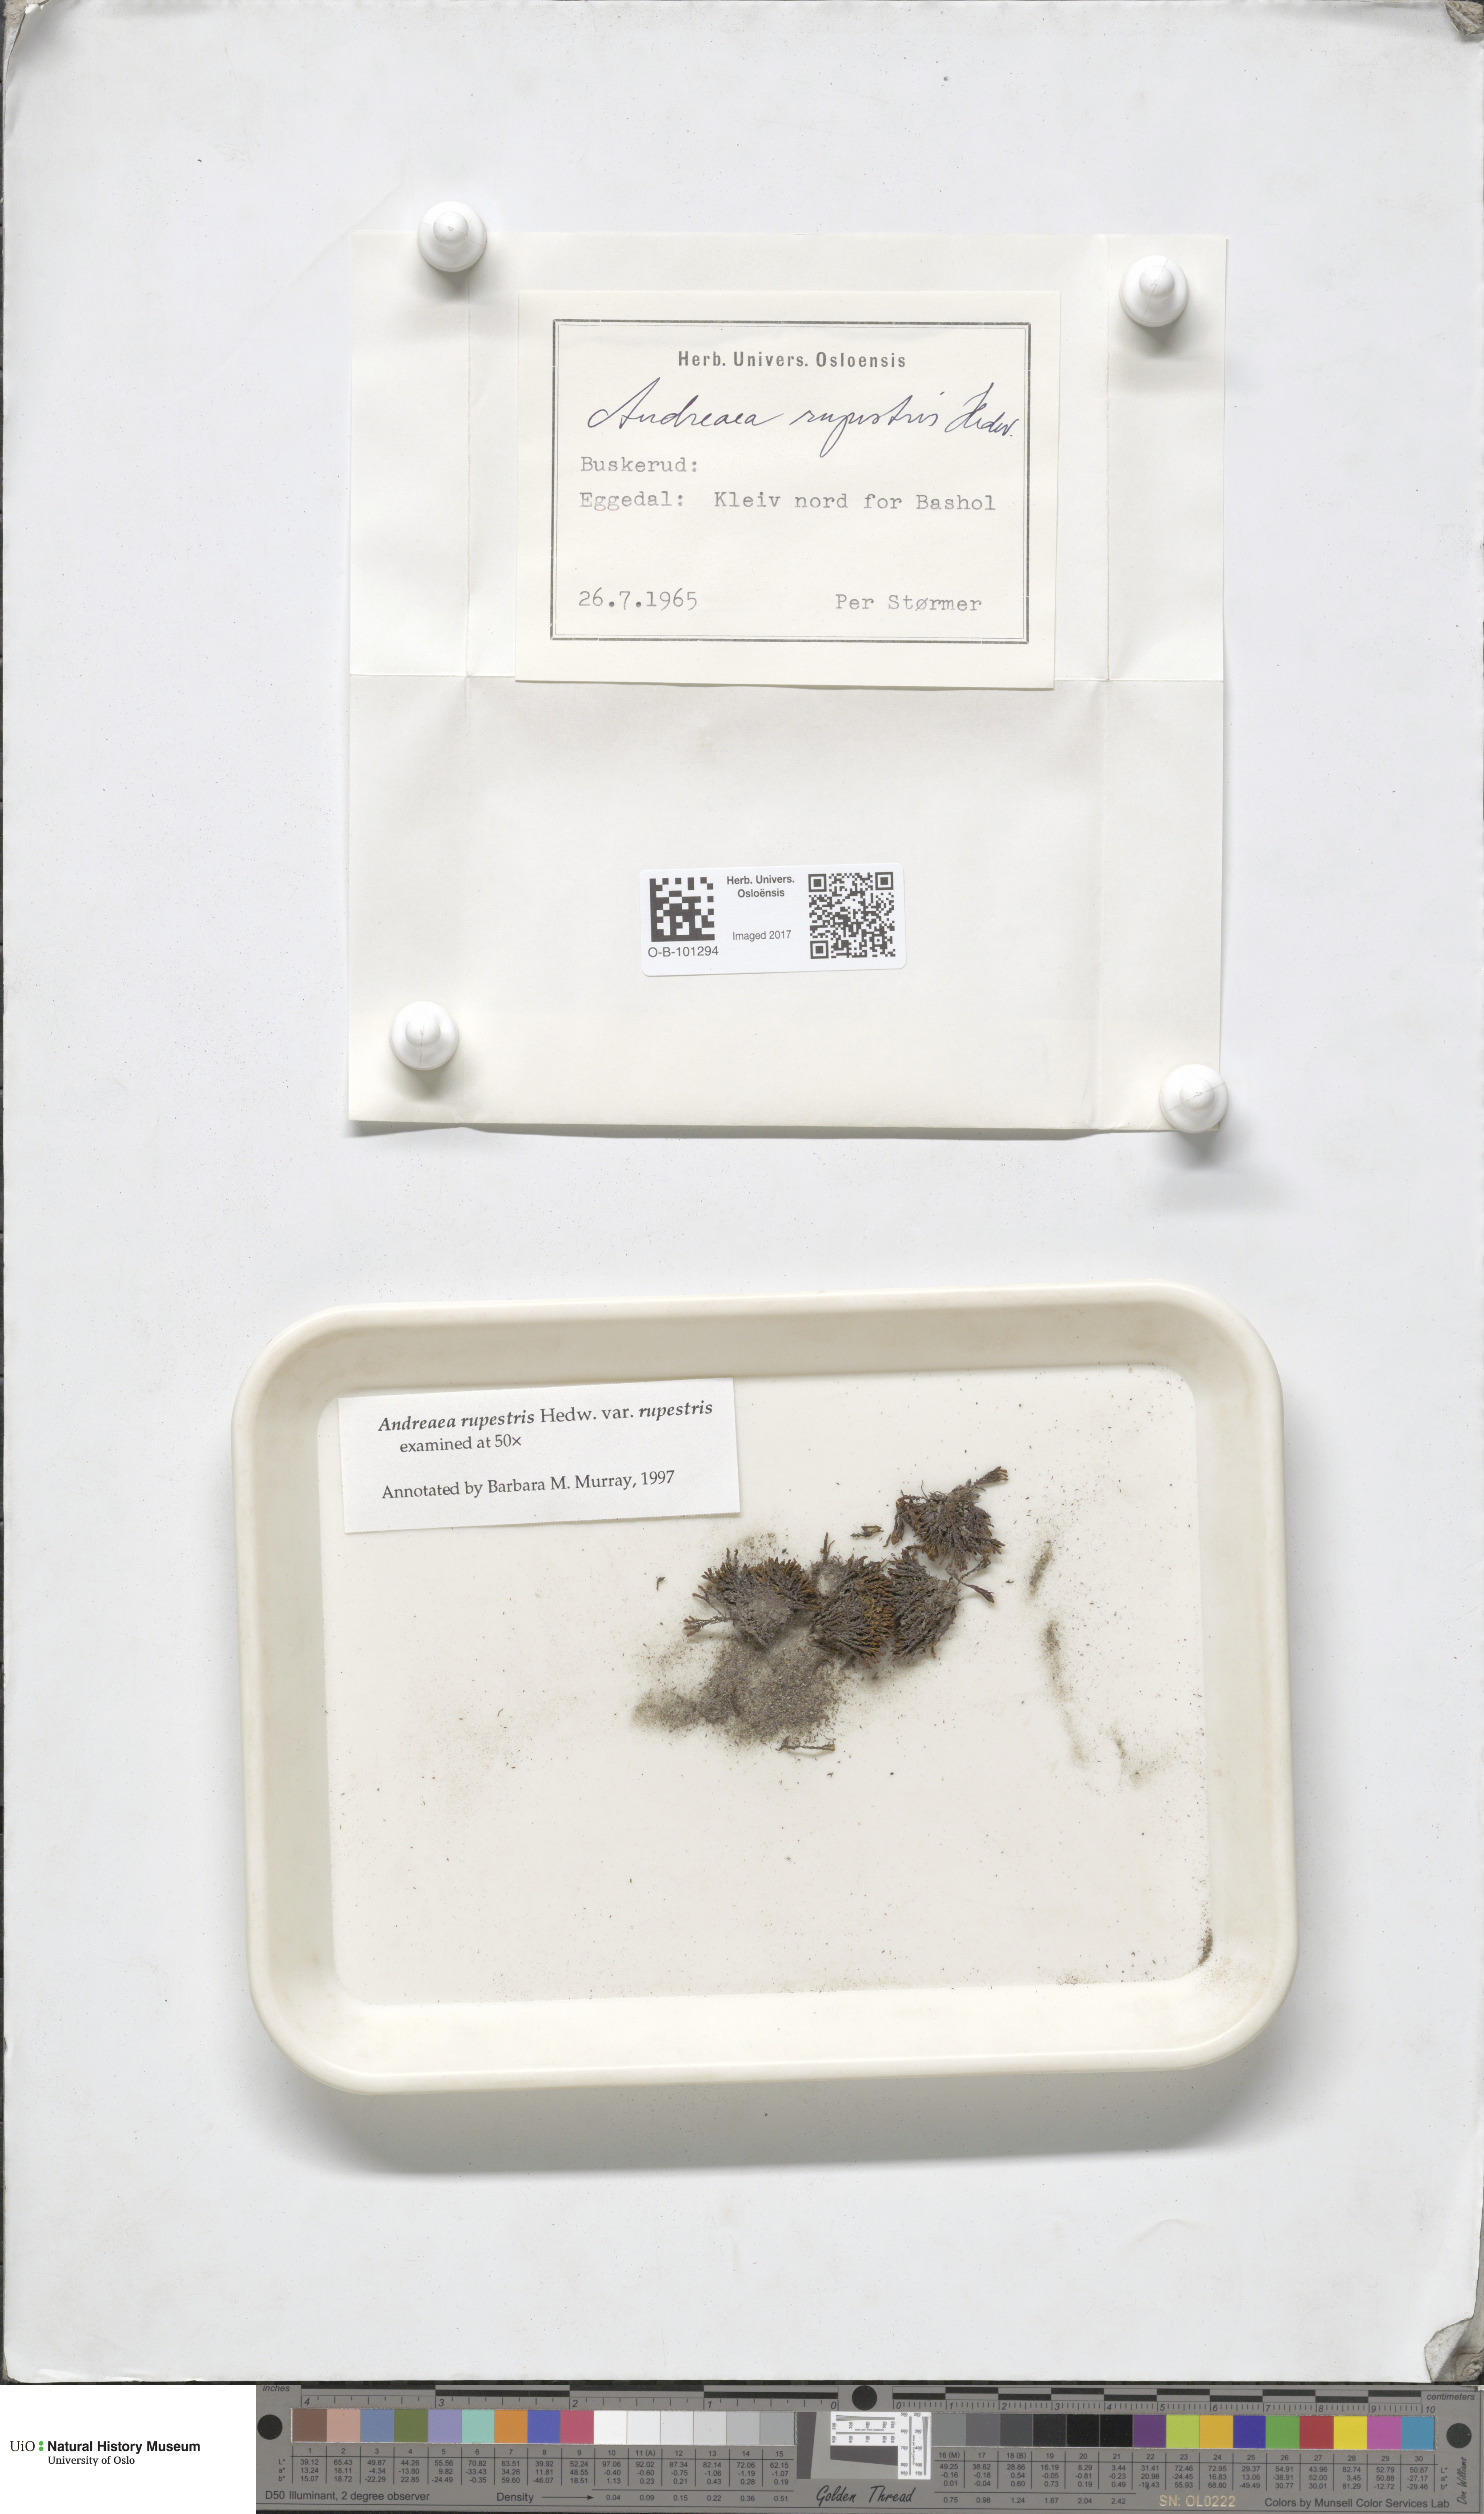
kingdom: Plantae
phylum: Bryophyta
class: Andreaeopsida
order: Andreaeales
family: Andreaeaceae
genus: Andreaea
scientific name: Andreaea rupestris
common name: Black rock moss
